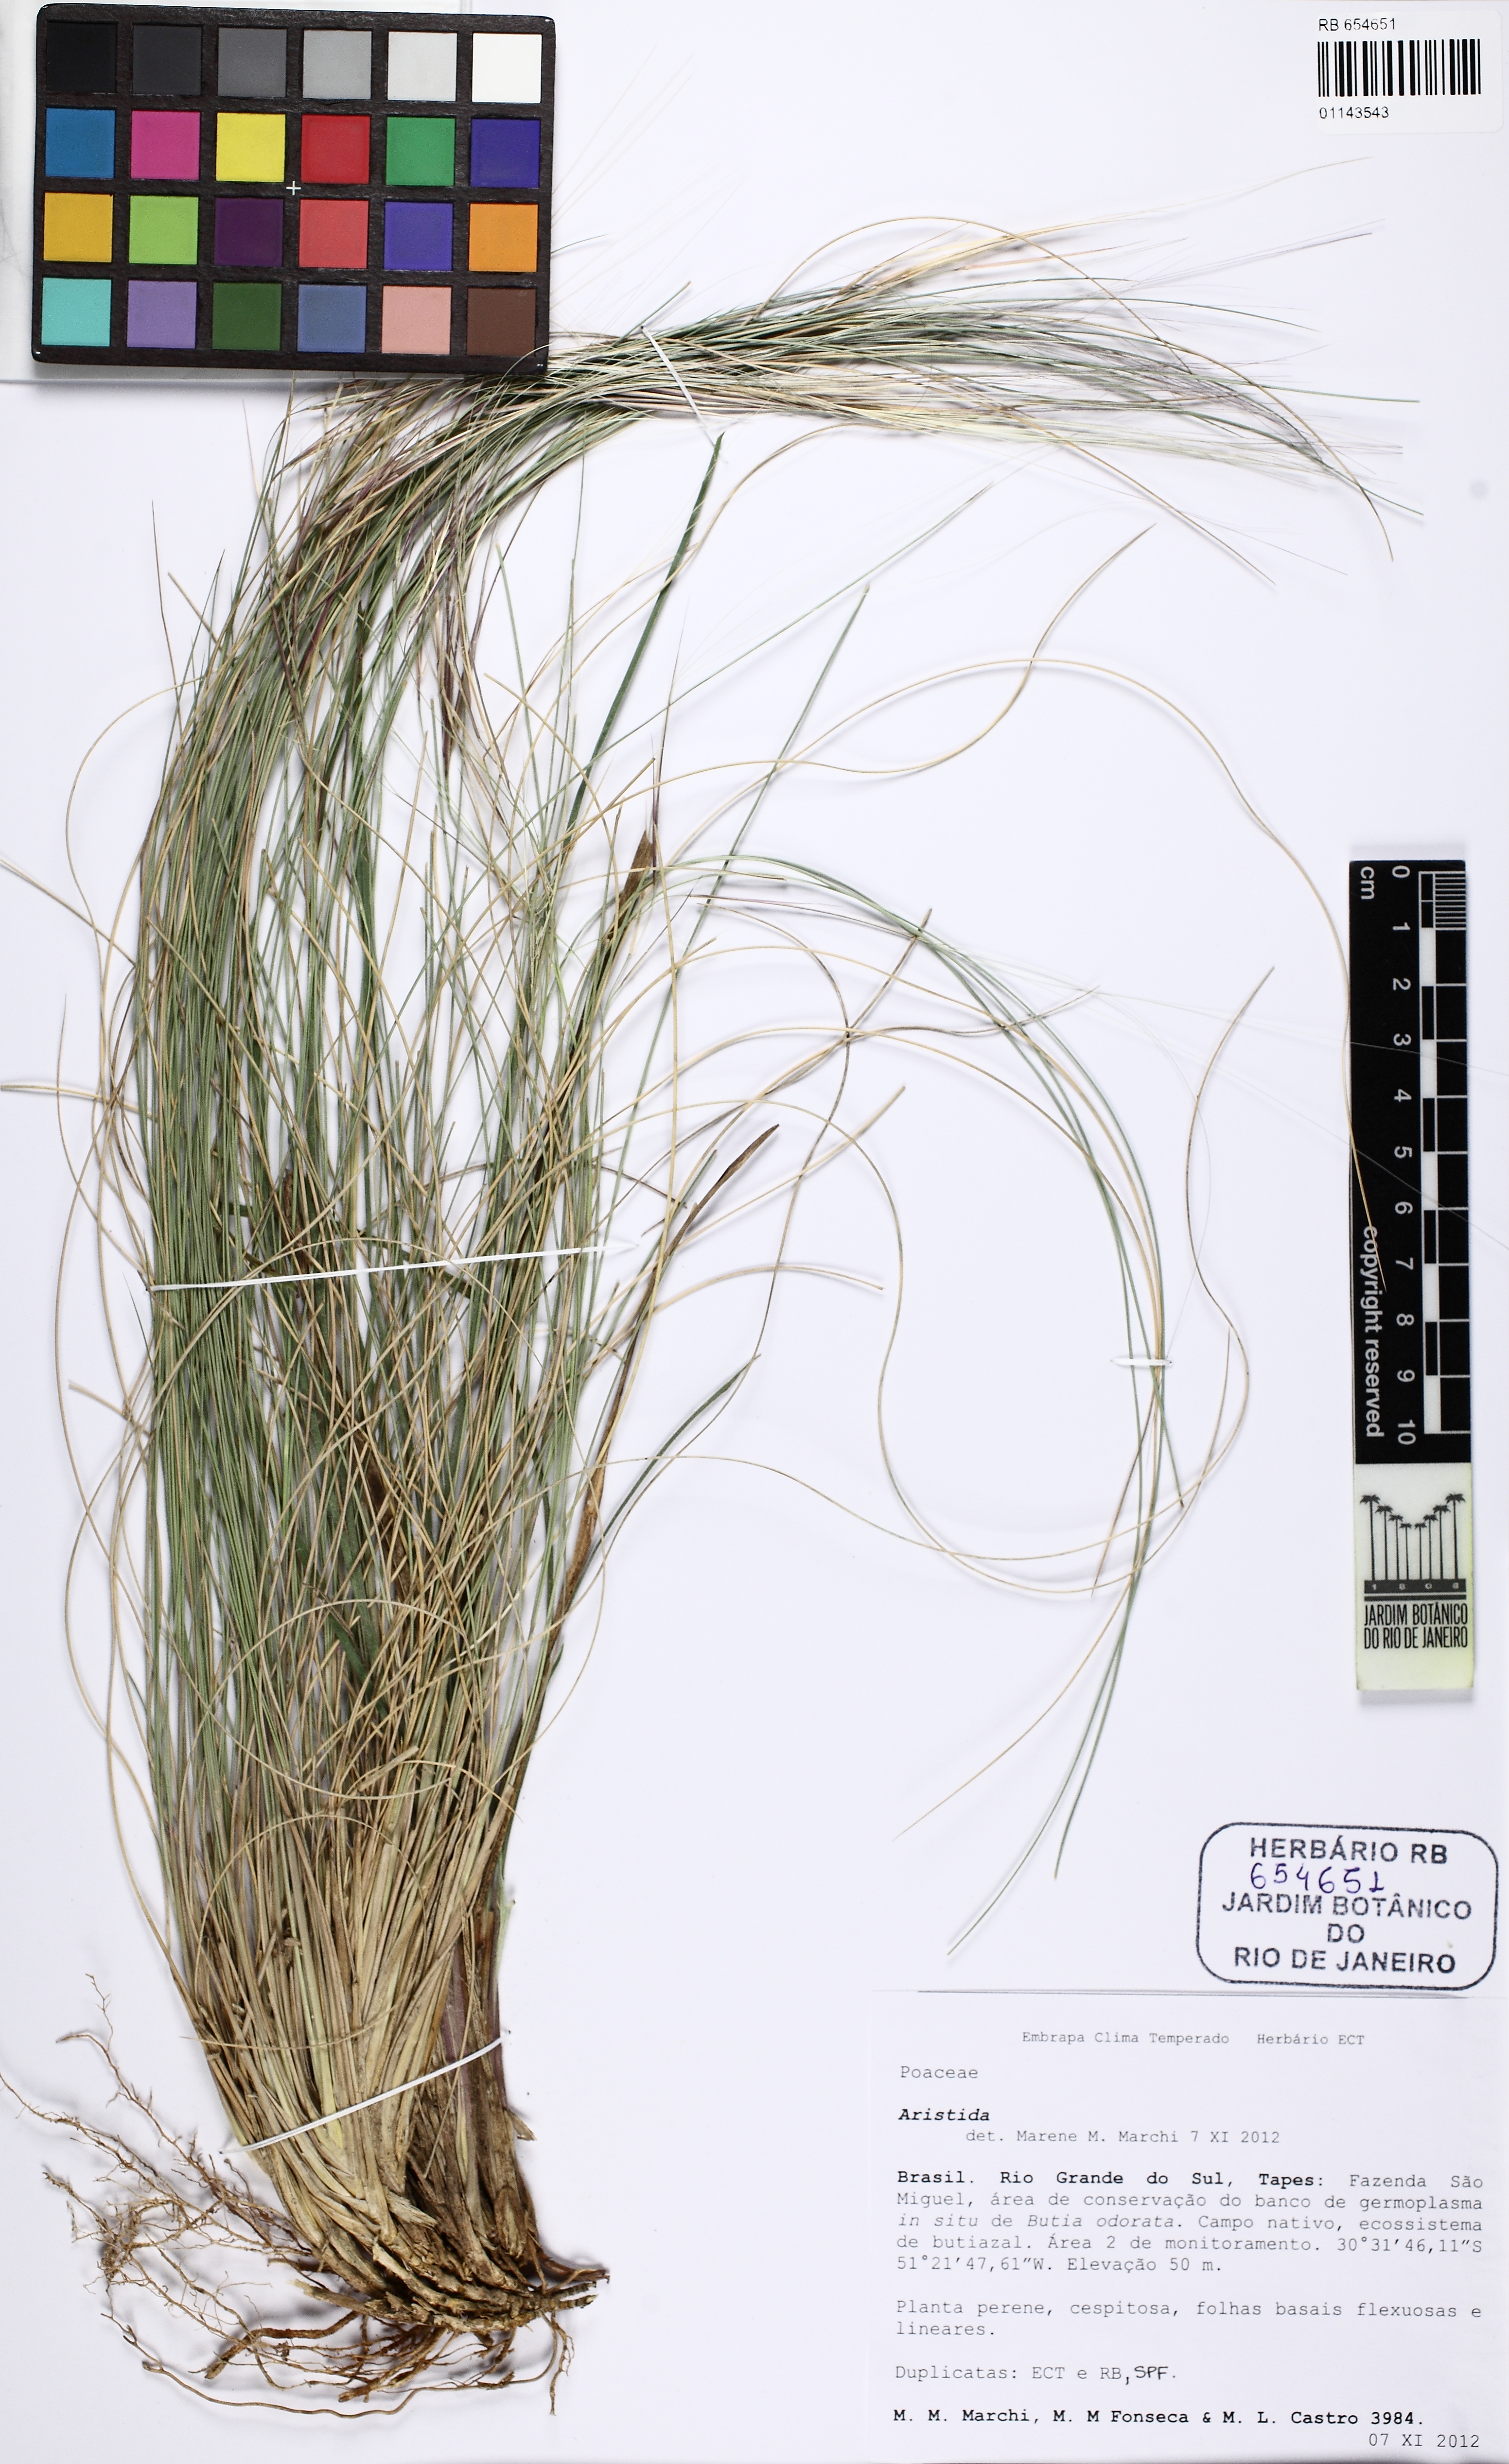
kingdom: Plantae
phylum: Tracheophyta
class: Liliopsida
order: Poales
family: Poaceae
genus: Aristida
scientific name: Aristida
